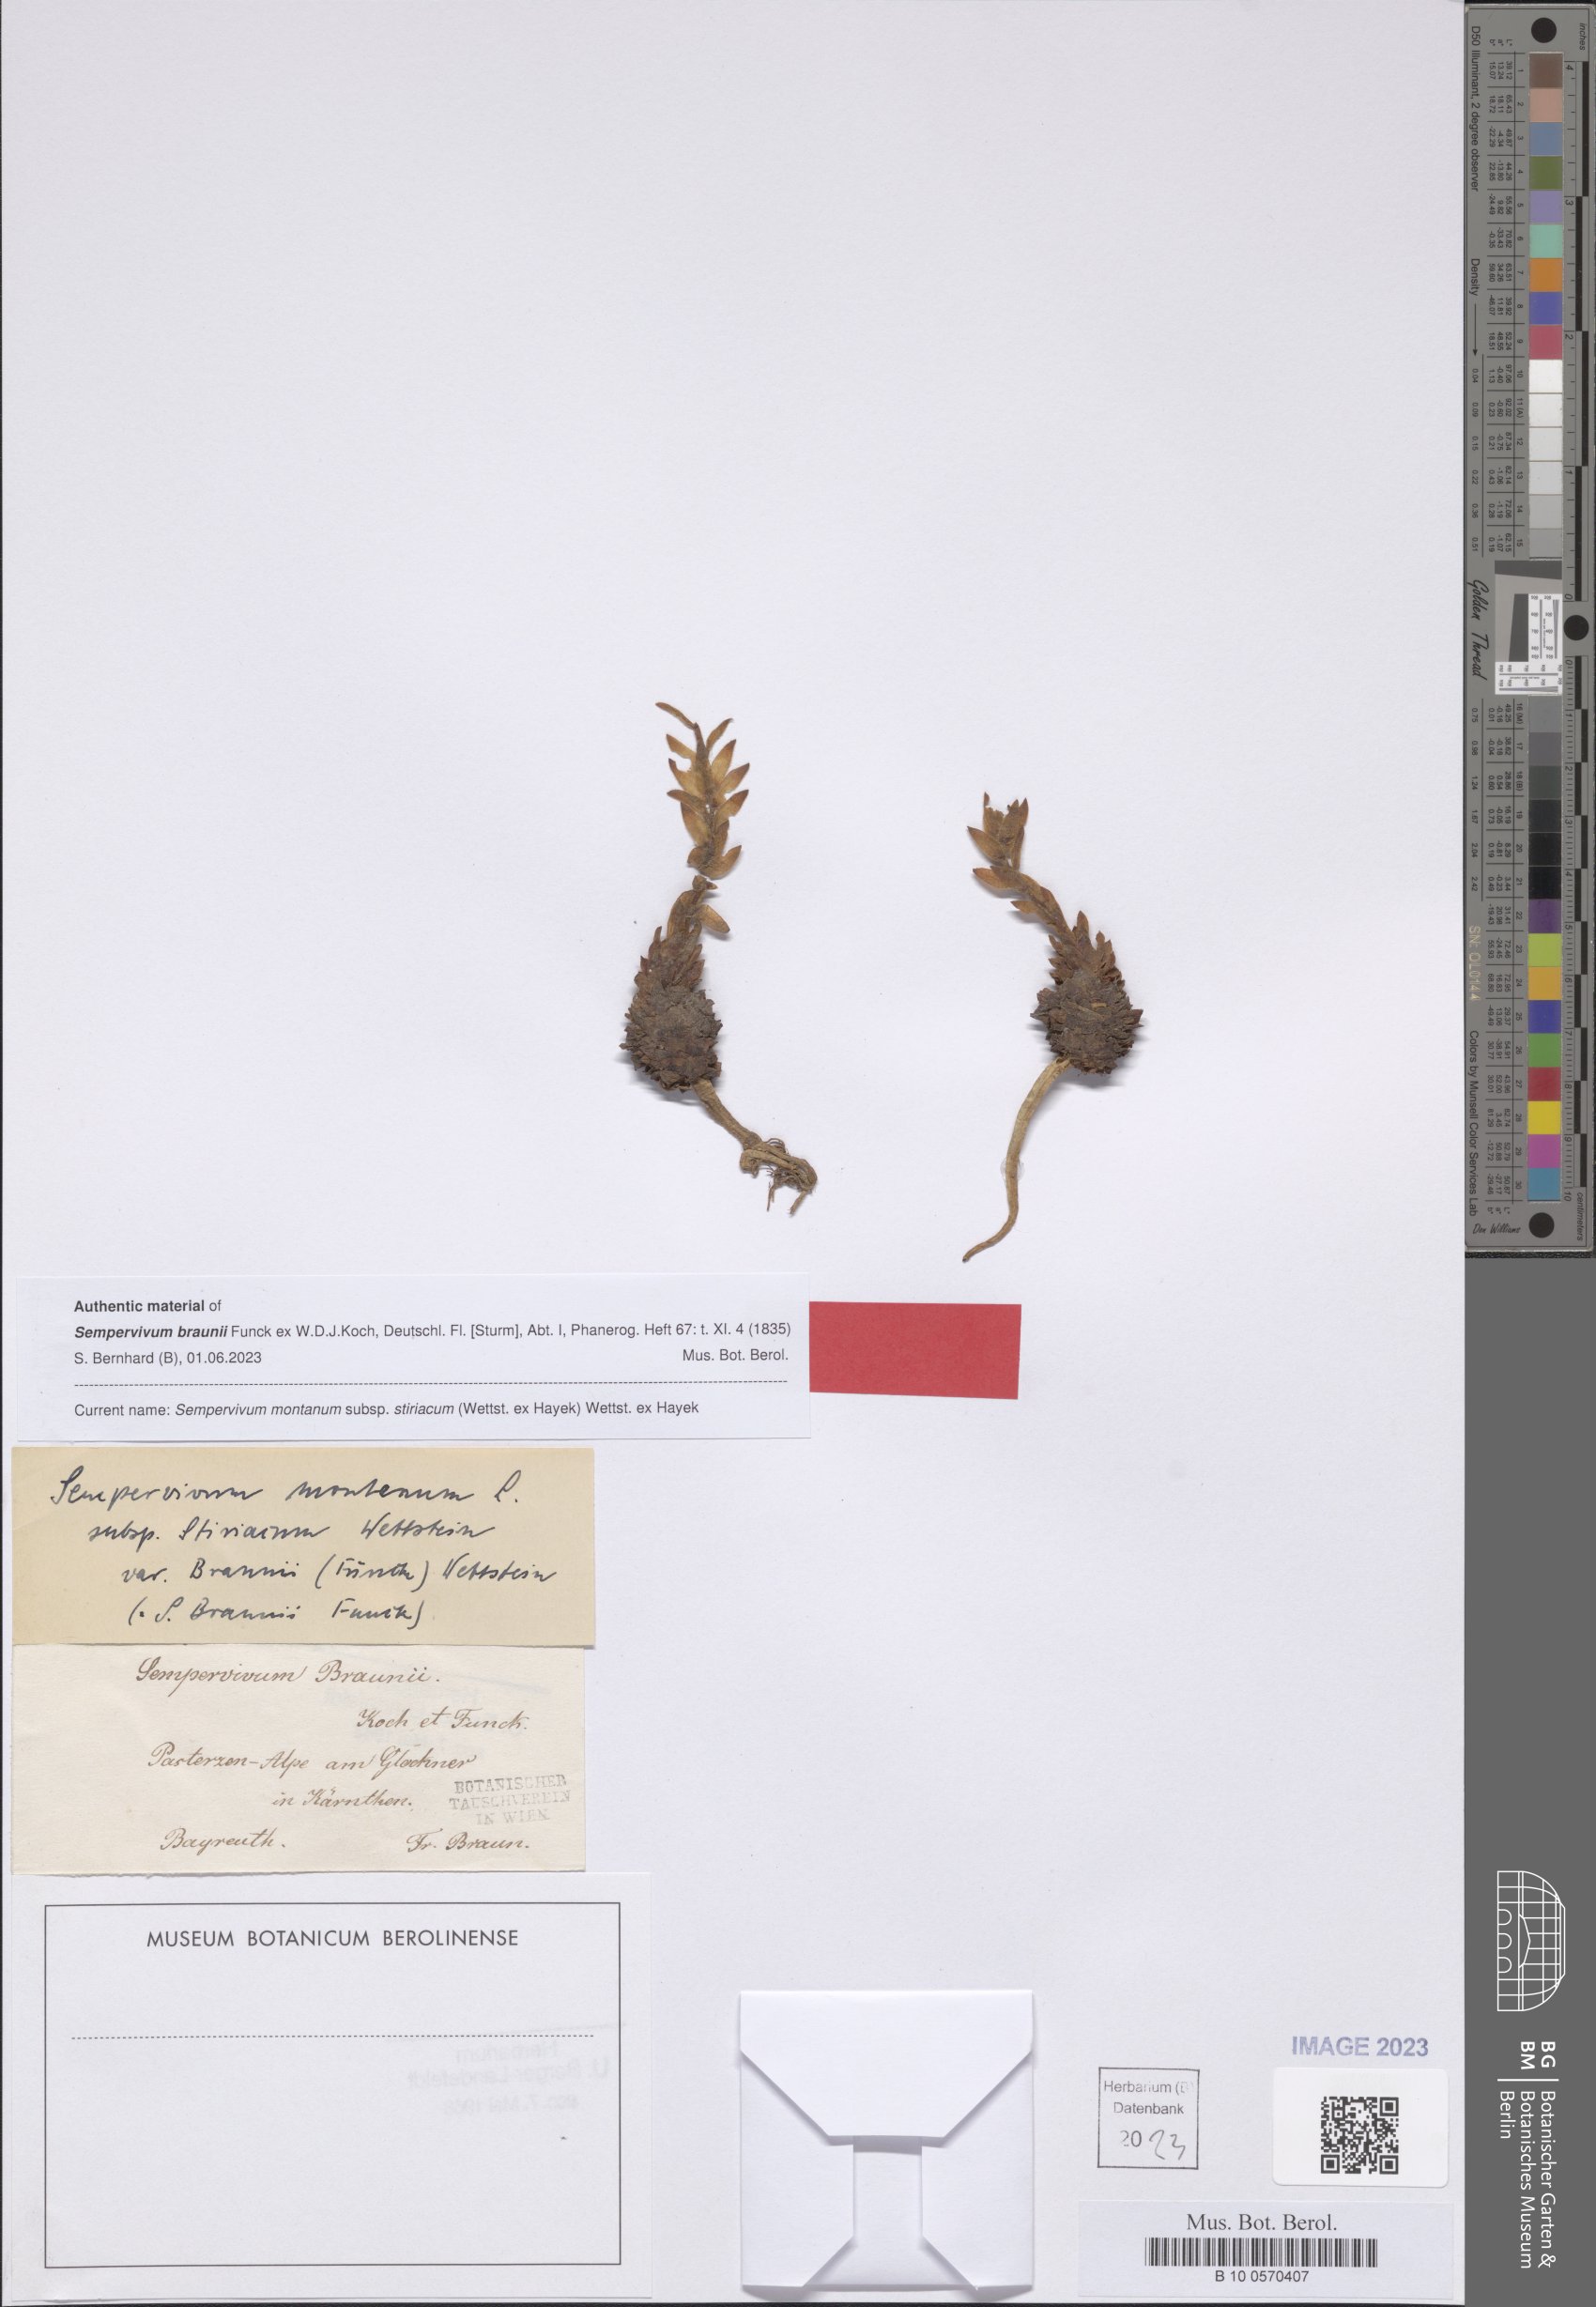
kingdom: Plantae
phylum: Tracheophyta
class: Magnoliopsida
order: Saxifragales
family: Crassulaceae
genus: Sempervivum
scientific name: Sempervivum montanum
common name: Mountain house-leek
